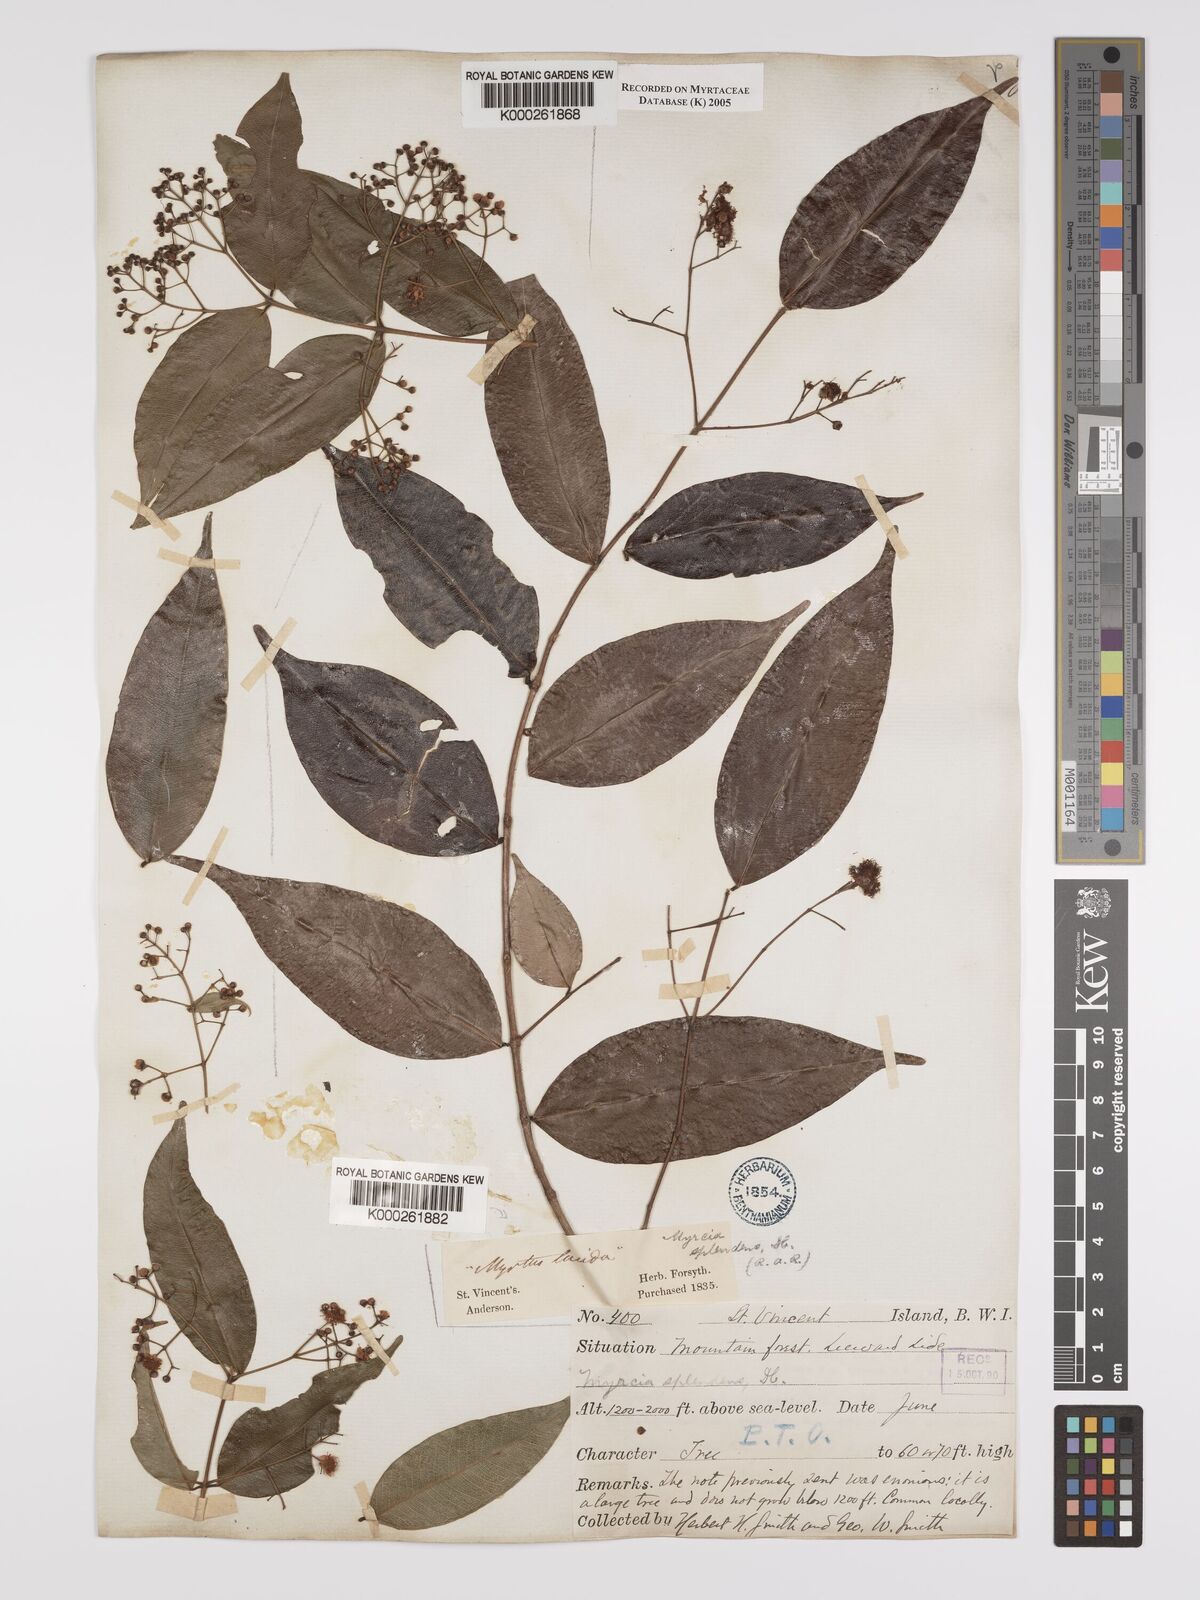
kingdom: Plantae
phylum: Tracheophyta
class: Magnoliopsida
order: Myrtales
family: Myrtaceae
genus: Myrcia
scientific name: Myrcia splendens
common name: Surinam cherry
